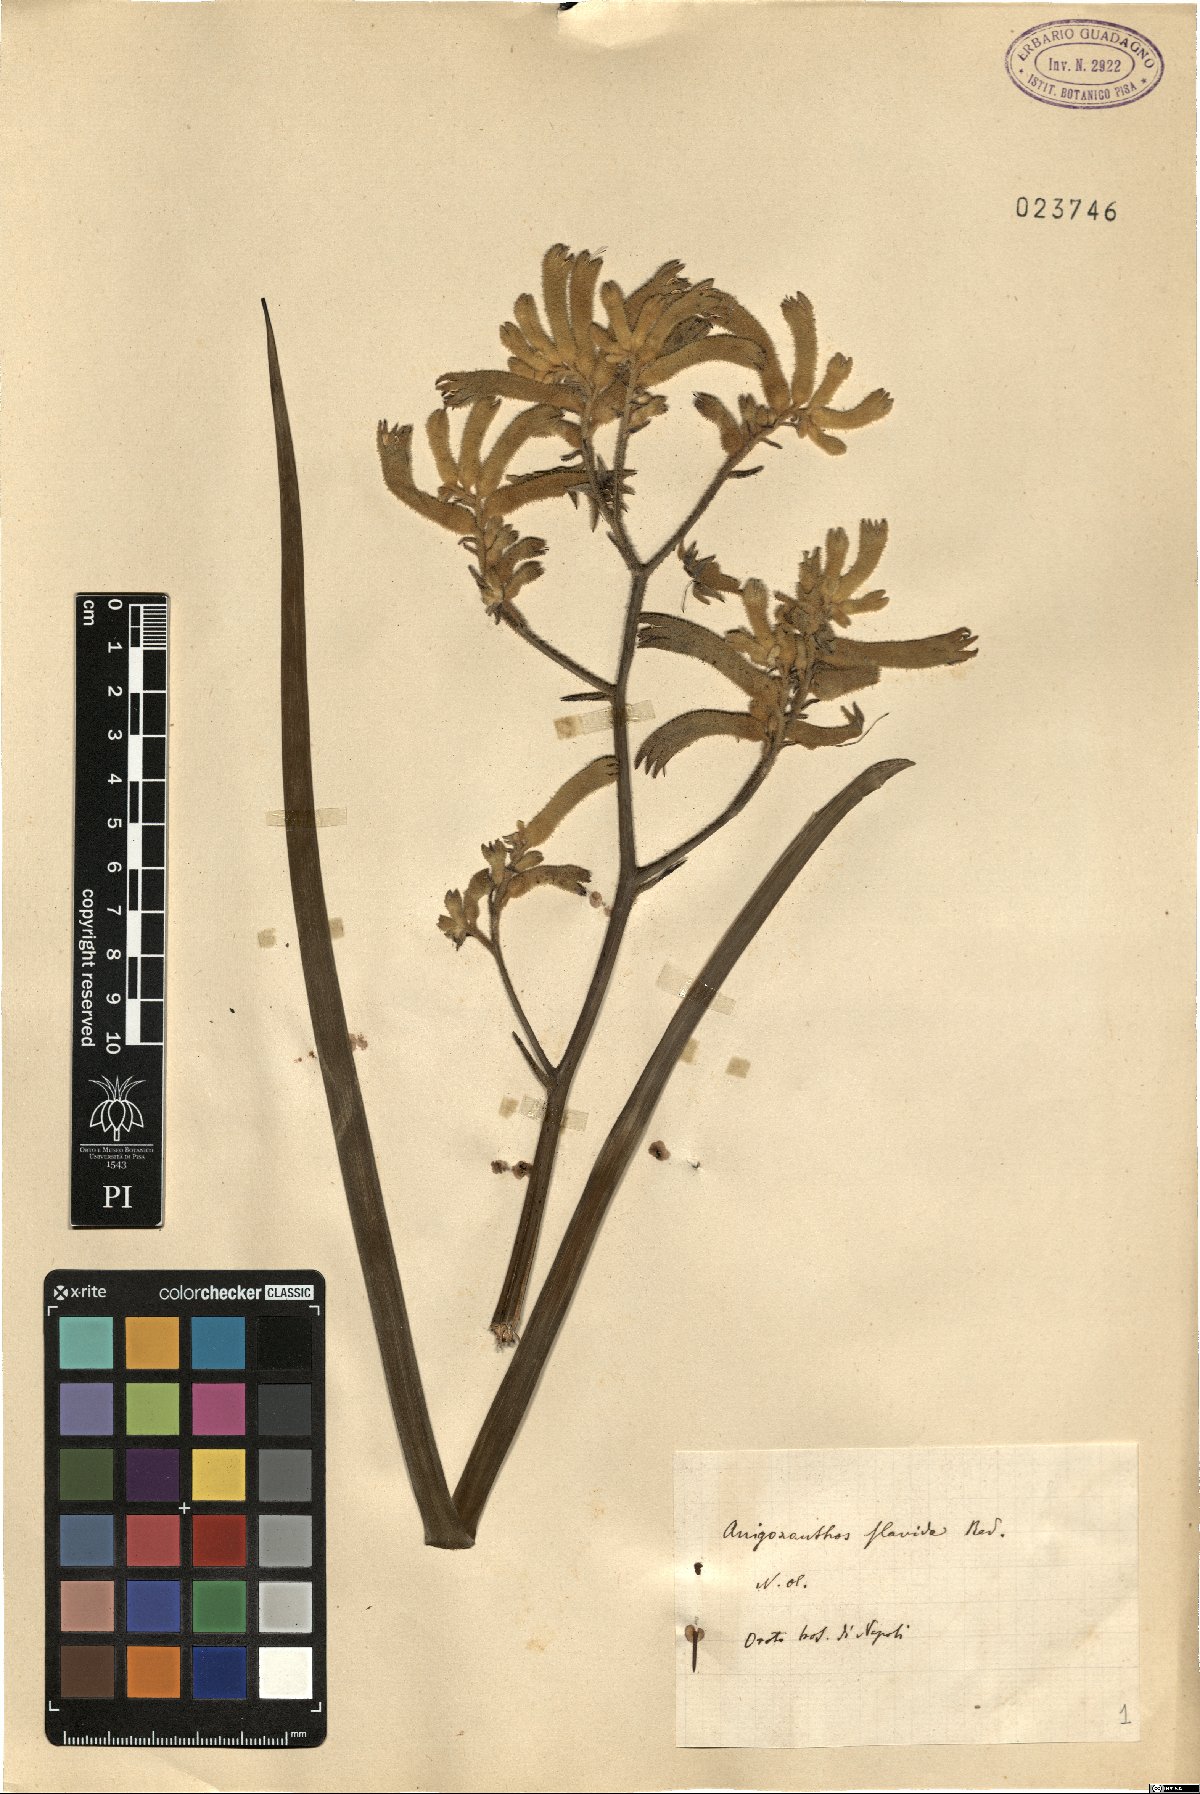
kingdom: Plantae
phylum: Tracheophyta
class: Liliopsida
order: Commelinales
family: Haemodoraceae
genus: Anigozanthos
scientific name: Anigozanthos flavidus
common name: Evergreen kangaroo-paw
